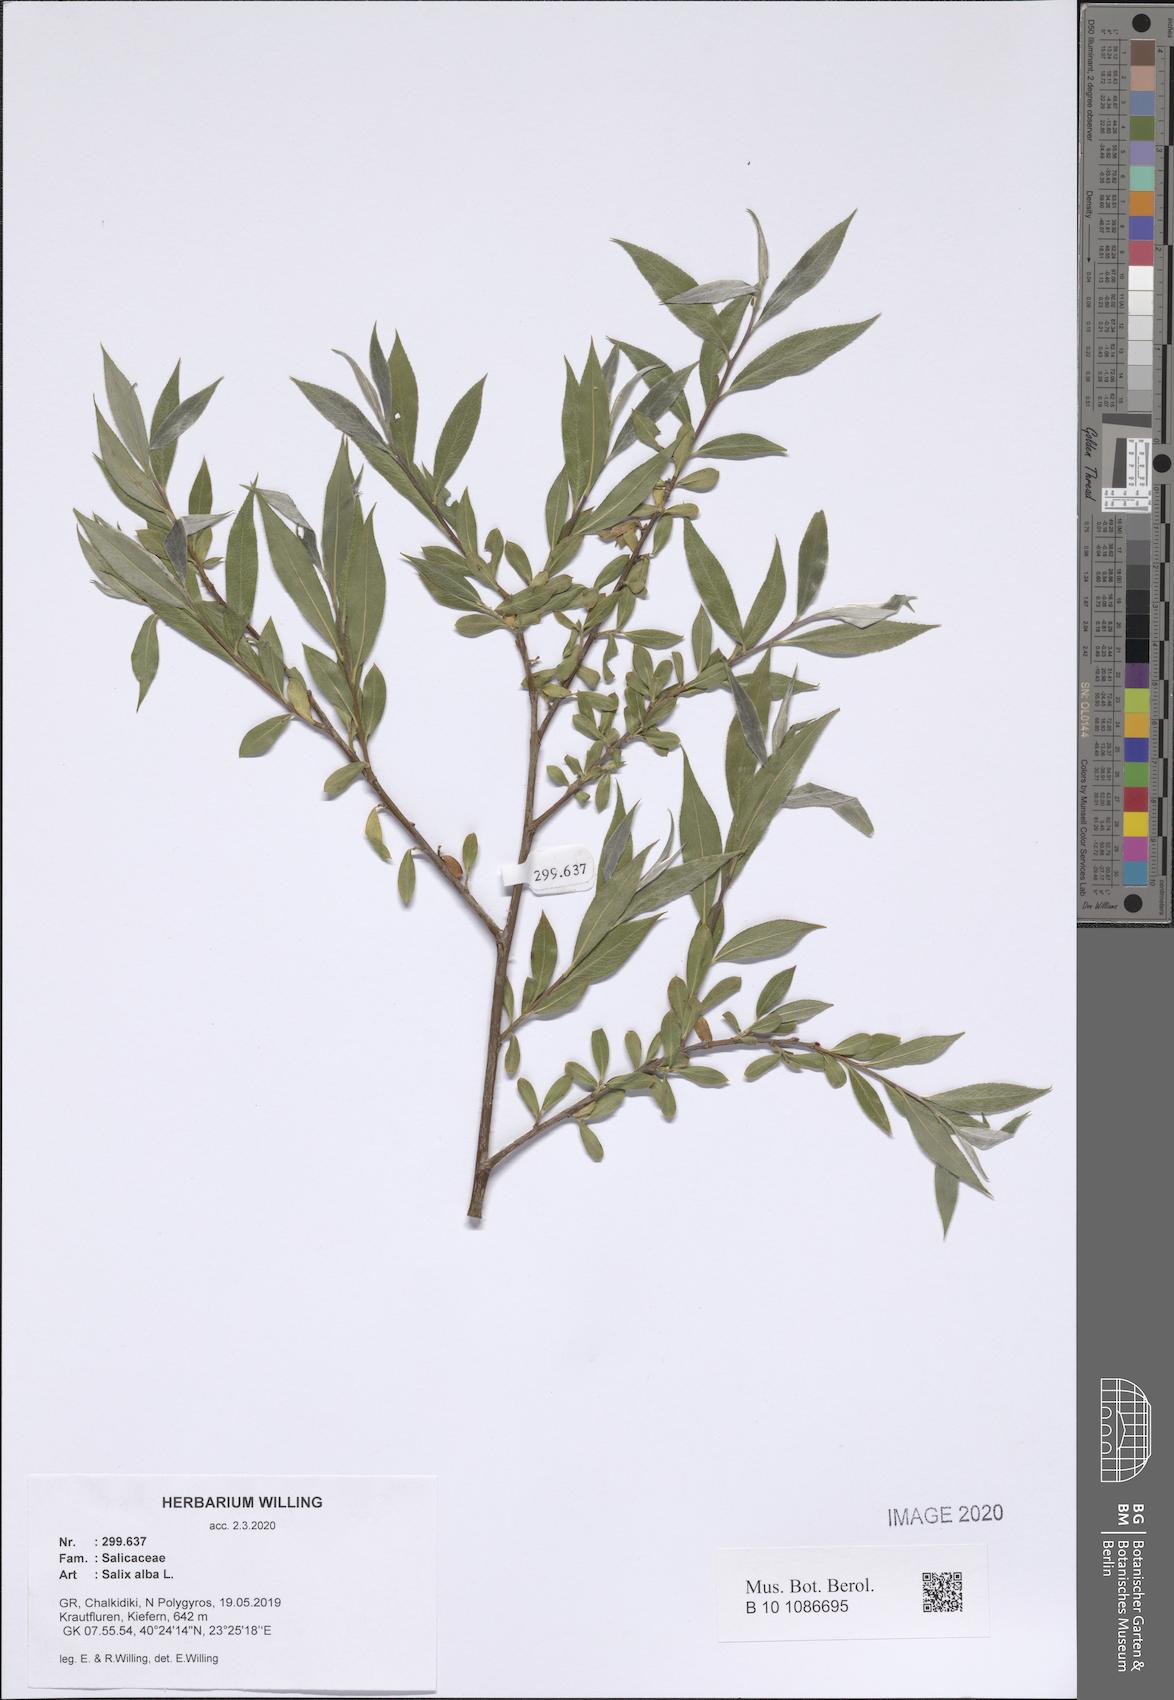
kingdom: Plantae
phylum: Tracheophyta
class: Magnoliopsida
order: Malpighiales
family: Salicaceae
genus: Salix
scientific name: Salix alba
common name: White willow
